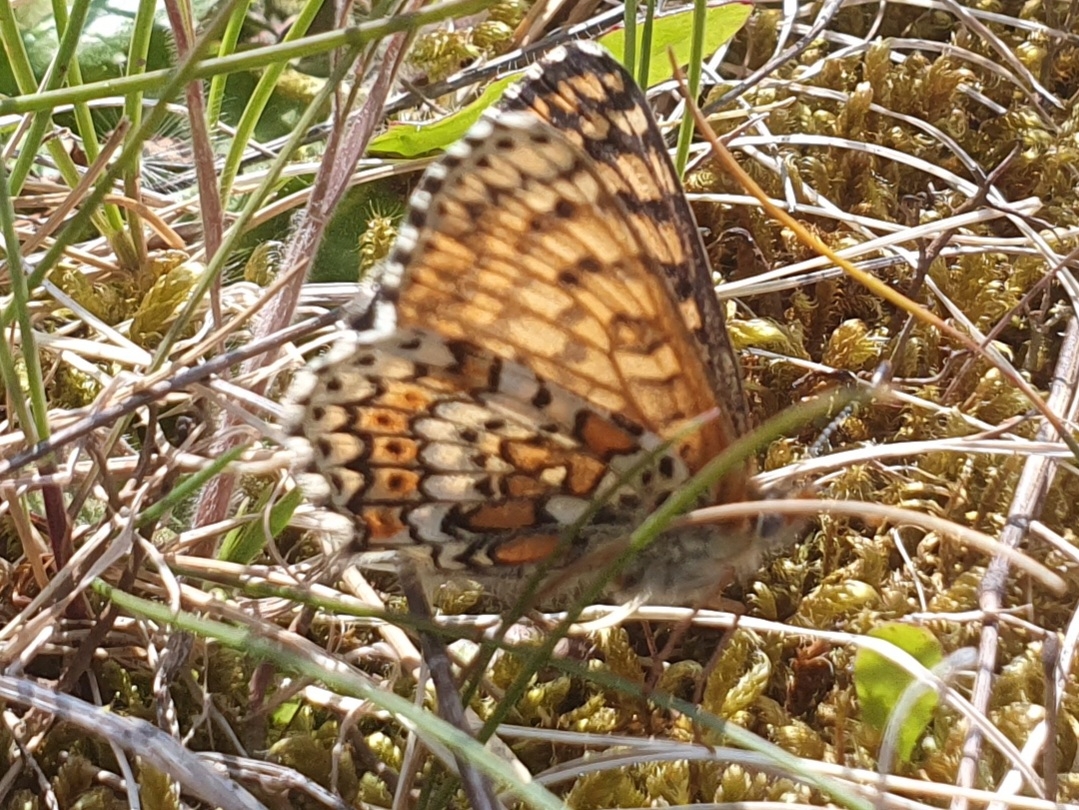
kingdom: Animalia
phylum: Arthropoda
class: Insecta
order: Lepidoptera
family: Nymphalidae
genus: Melitaea
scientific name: Melitaea cinxia
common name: Okkergul pletvinge
